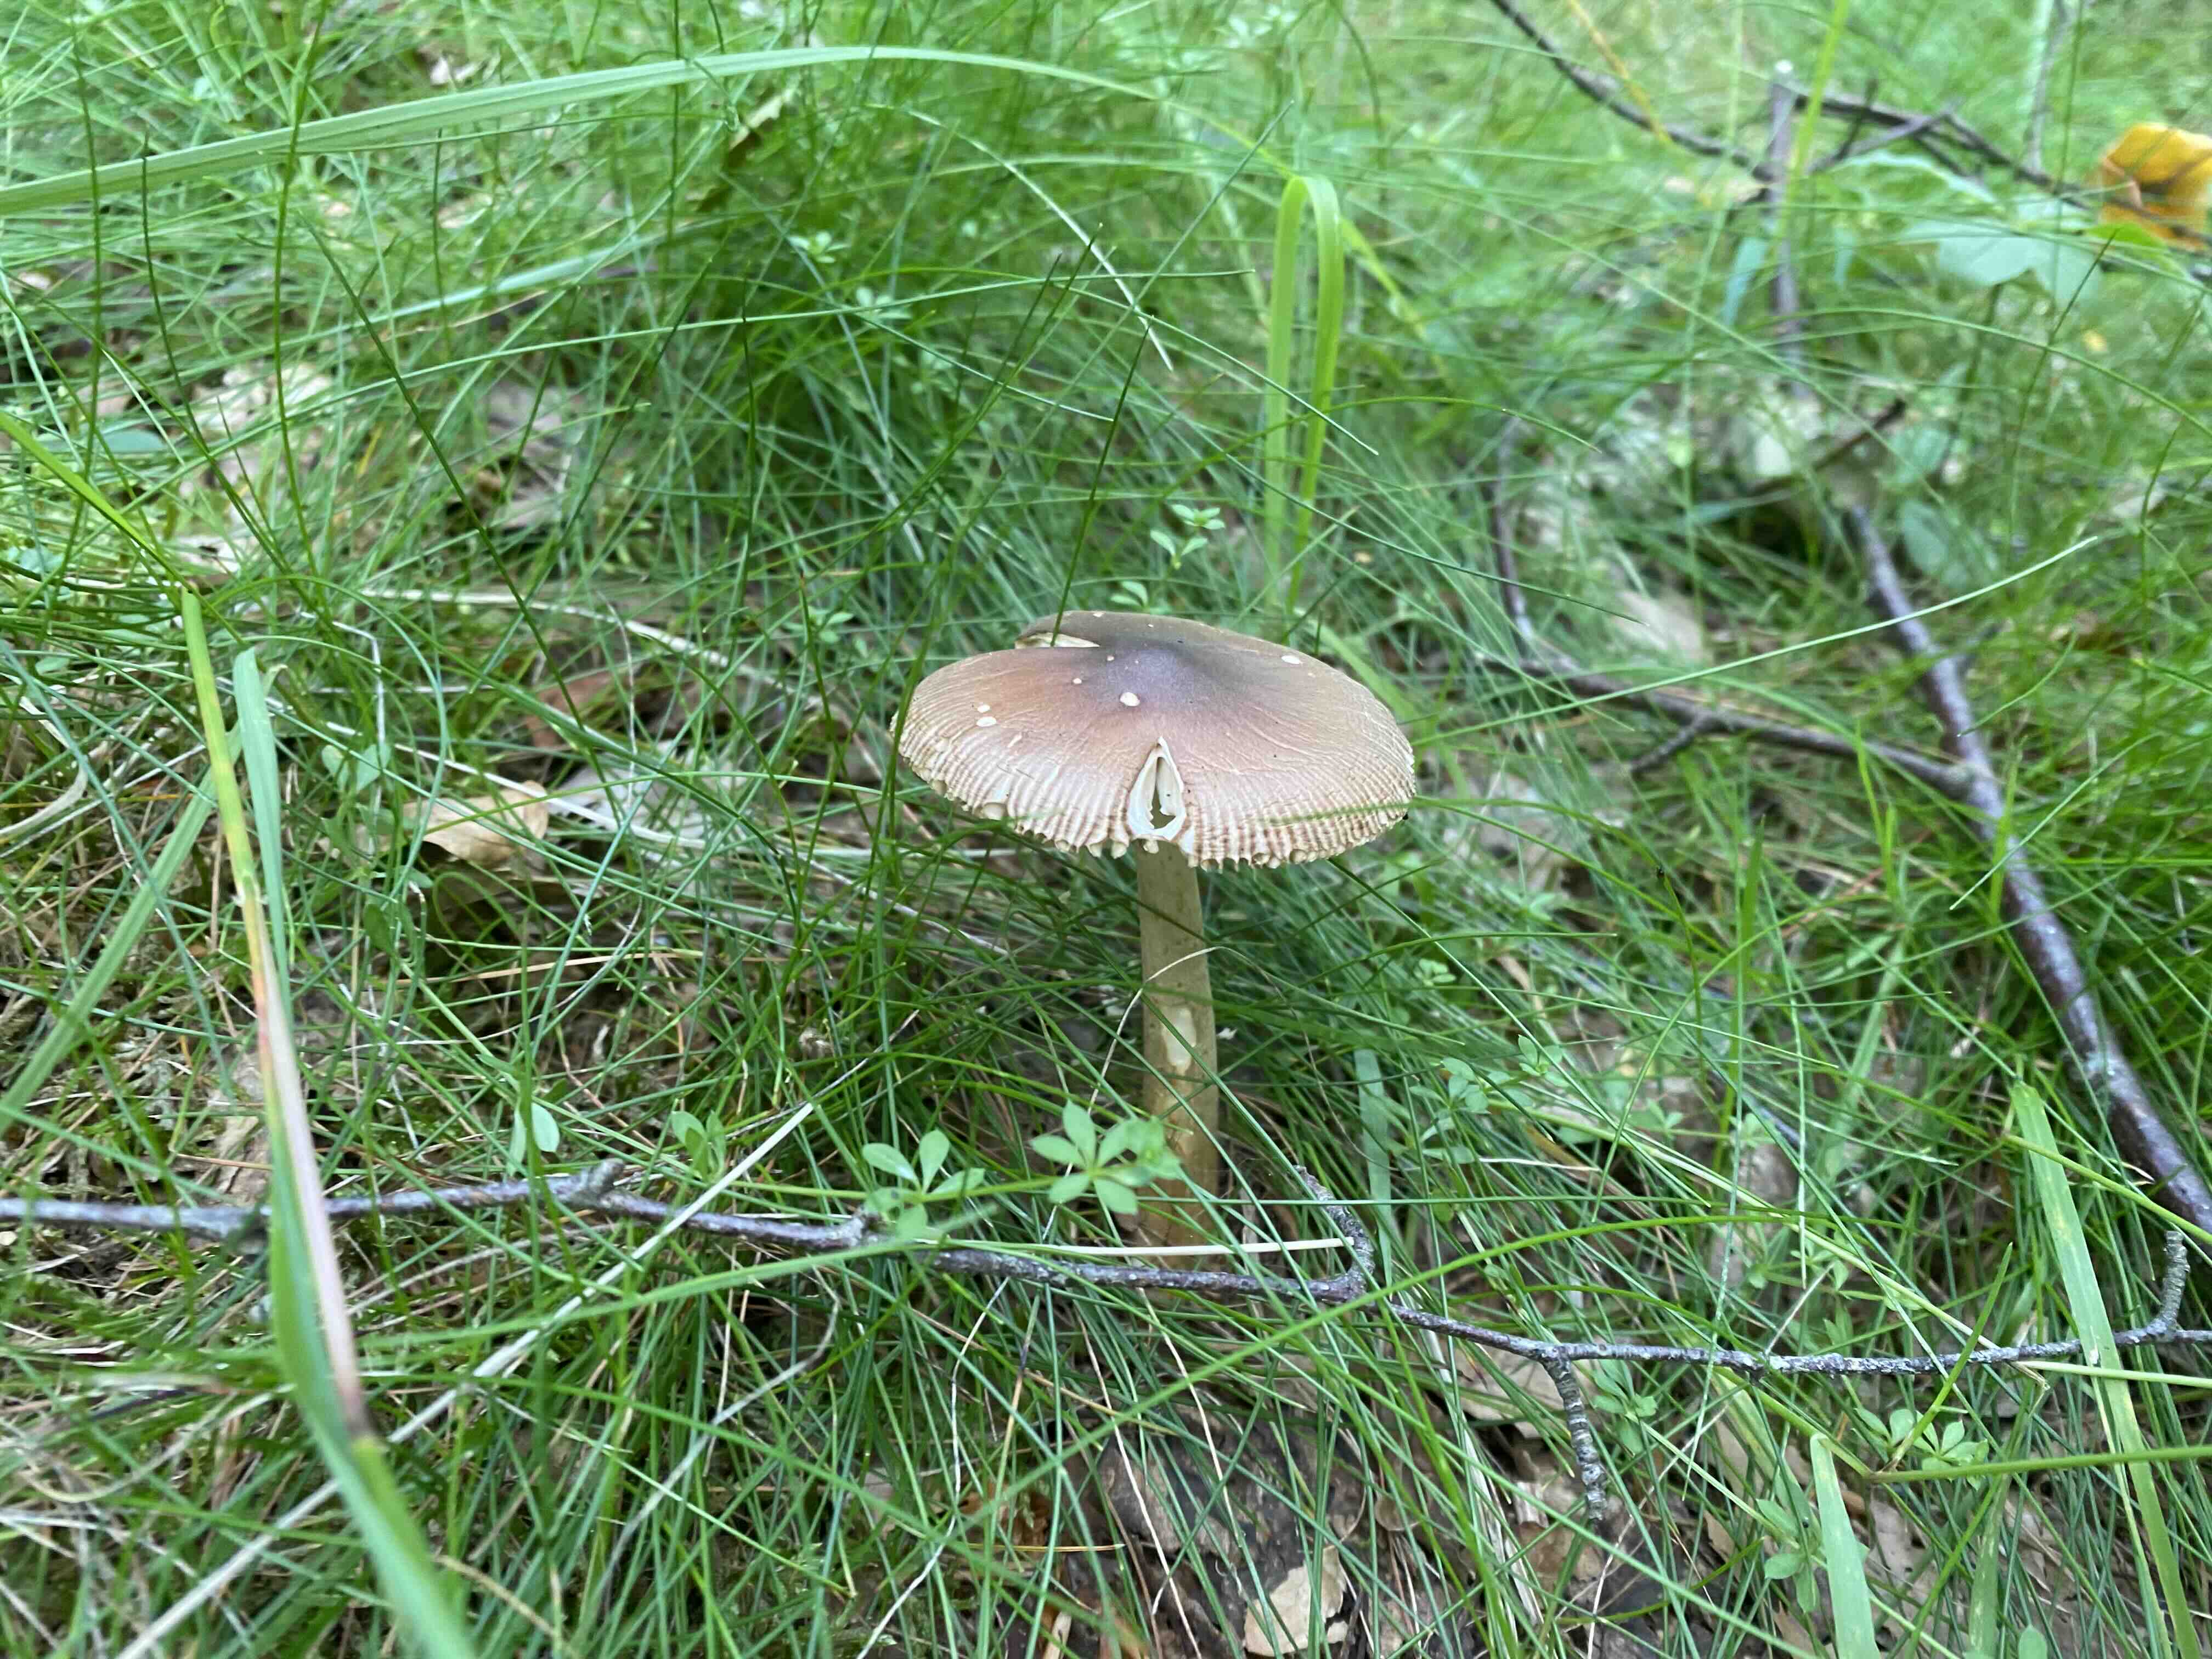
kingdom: Fungi
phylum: Basidiomycota
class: Agaricomycetes
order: Agaricales
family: Amanitaceae
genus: Amanita
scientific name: Amanita fulva
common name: brun kam-fluesvamp
